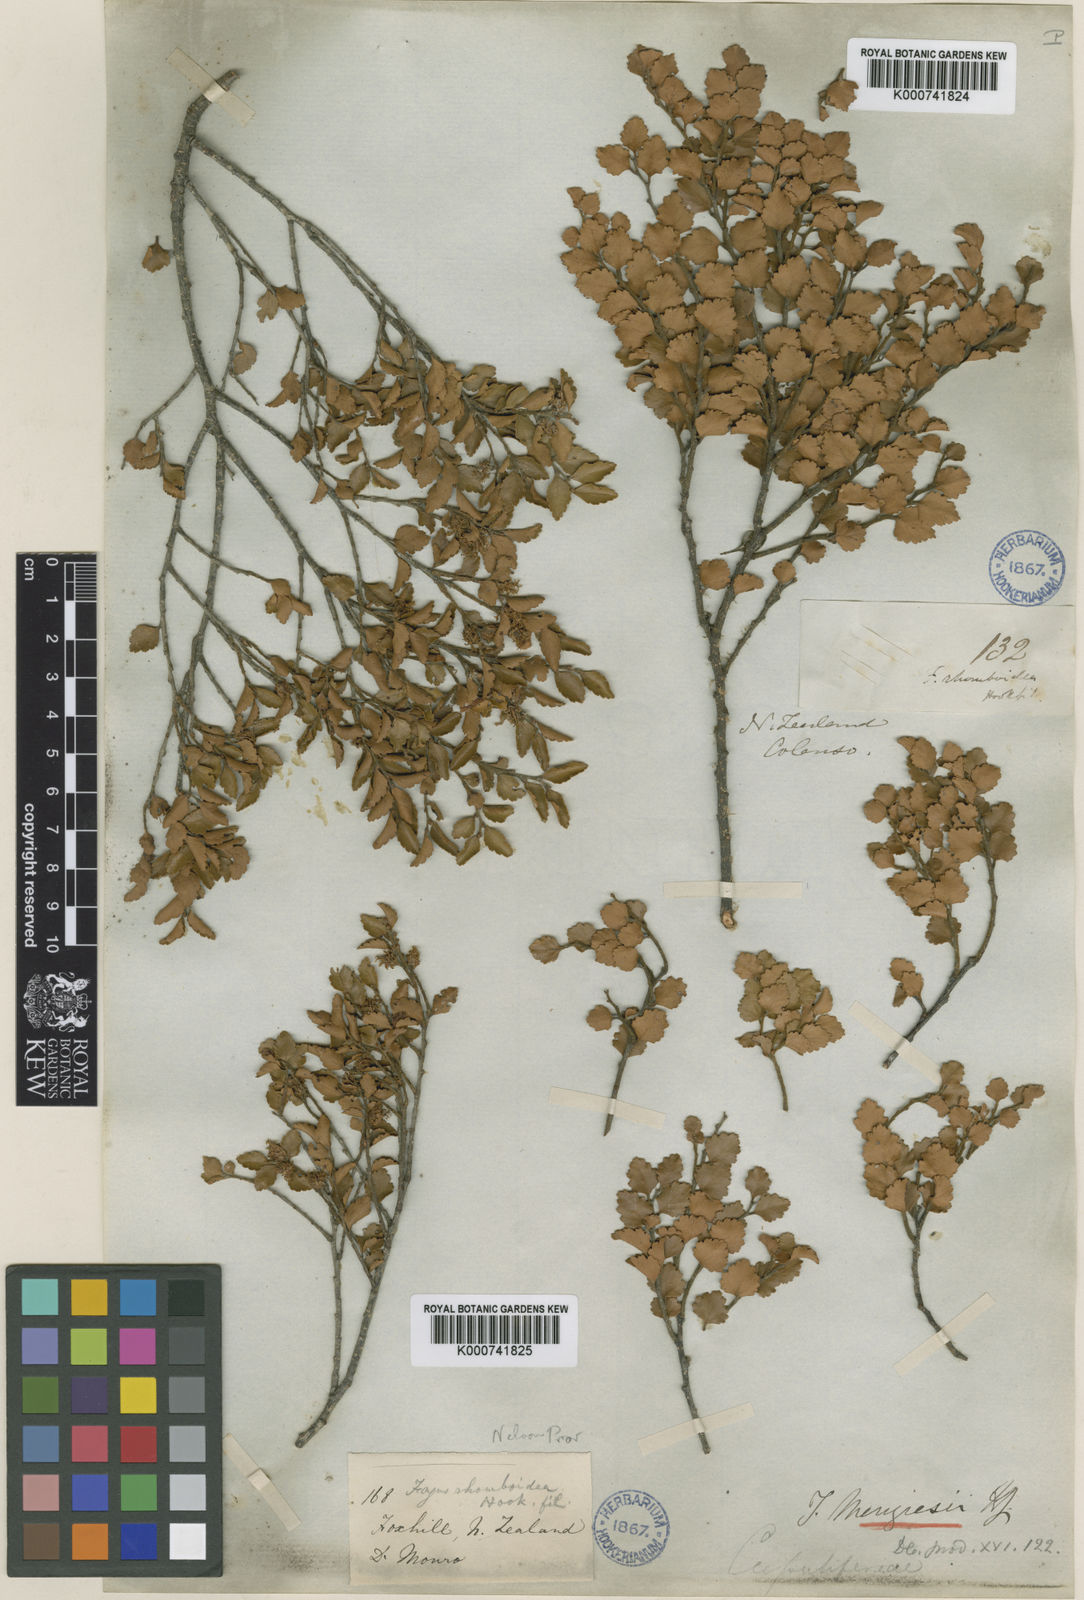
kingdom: Plantae
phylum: Tracheophyta
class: Magnoliopsida
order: Fagales
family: Nothofagaceae
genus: Nothofagus
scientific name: Nothofagus menziesii
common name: Silver beech
